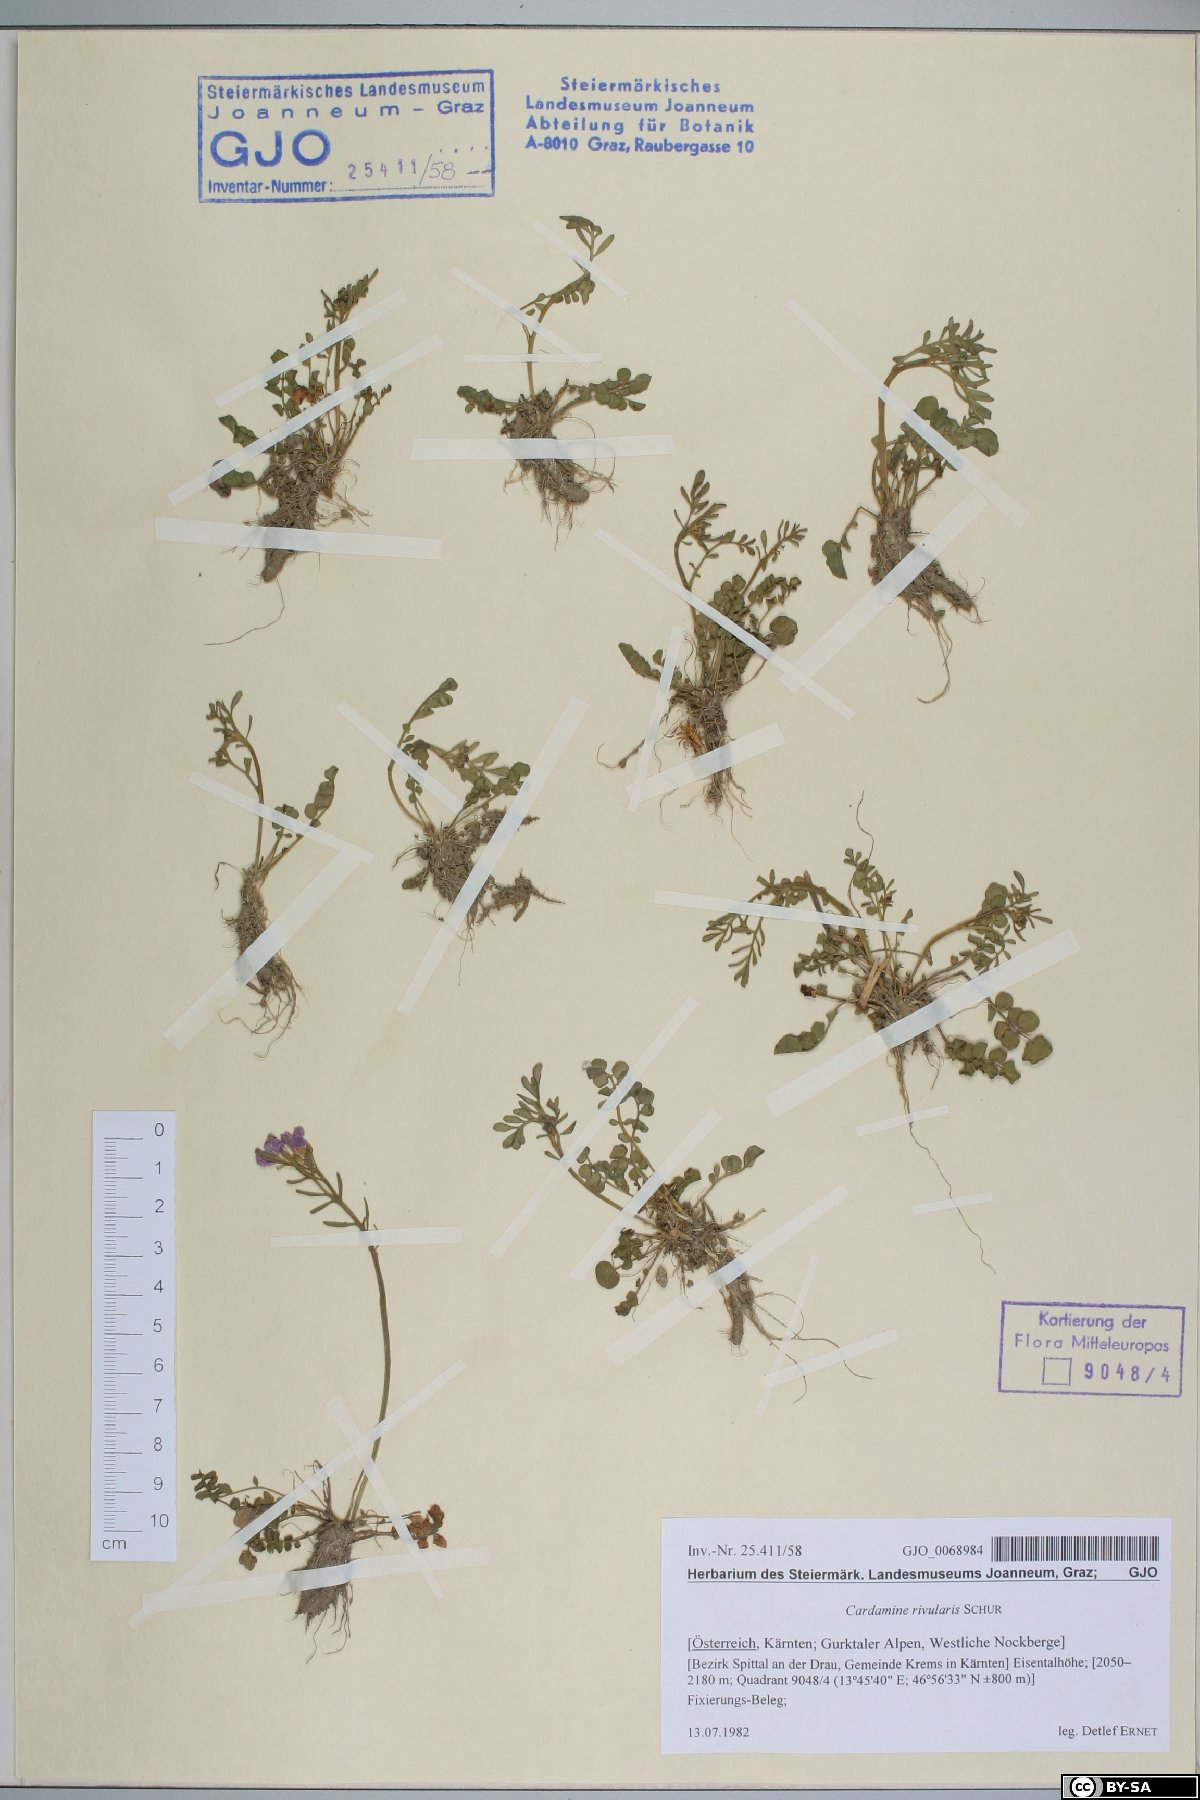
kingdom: Plantae
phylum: Tracheophyta
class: Magnoliopsida
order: Brassicales
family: Brassicaceae
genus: Cardamine
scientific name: Cardamine pratensis
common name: Cuckoo flower
